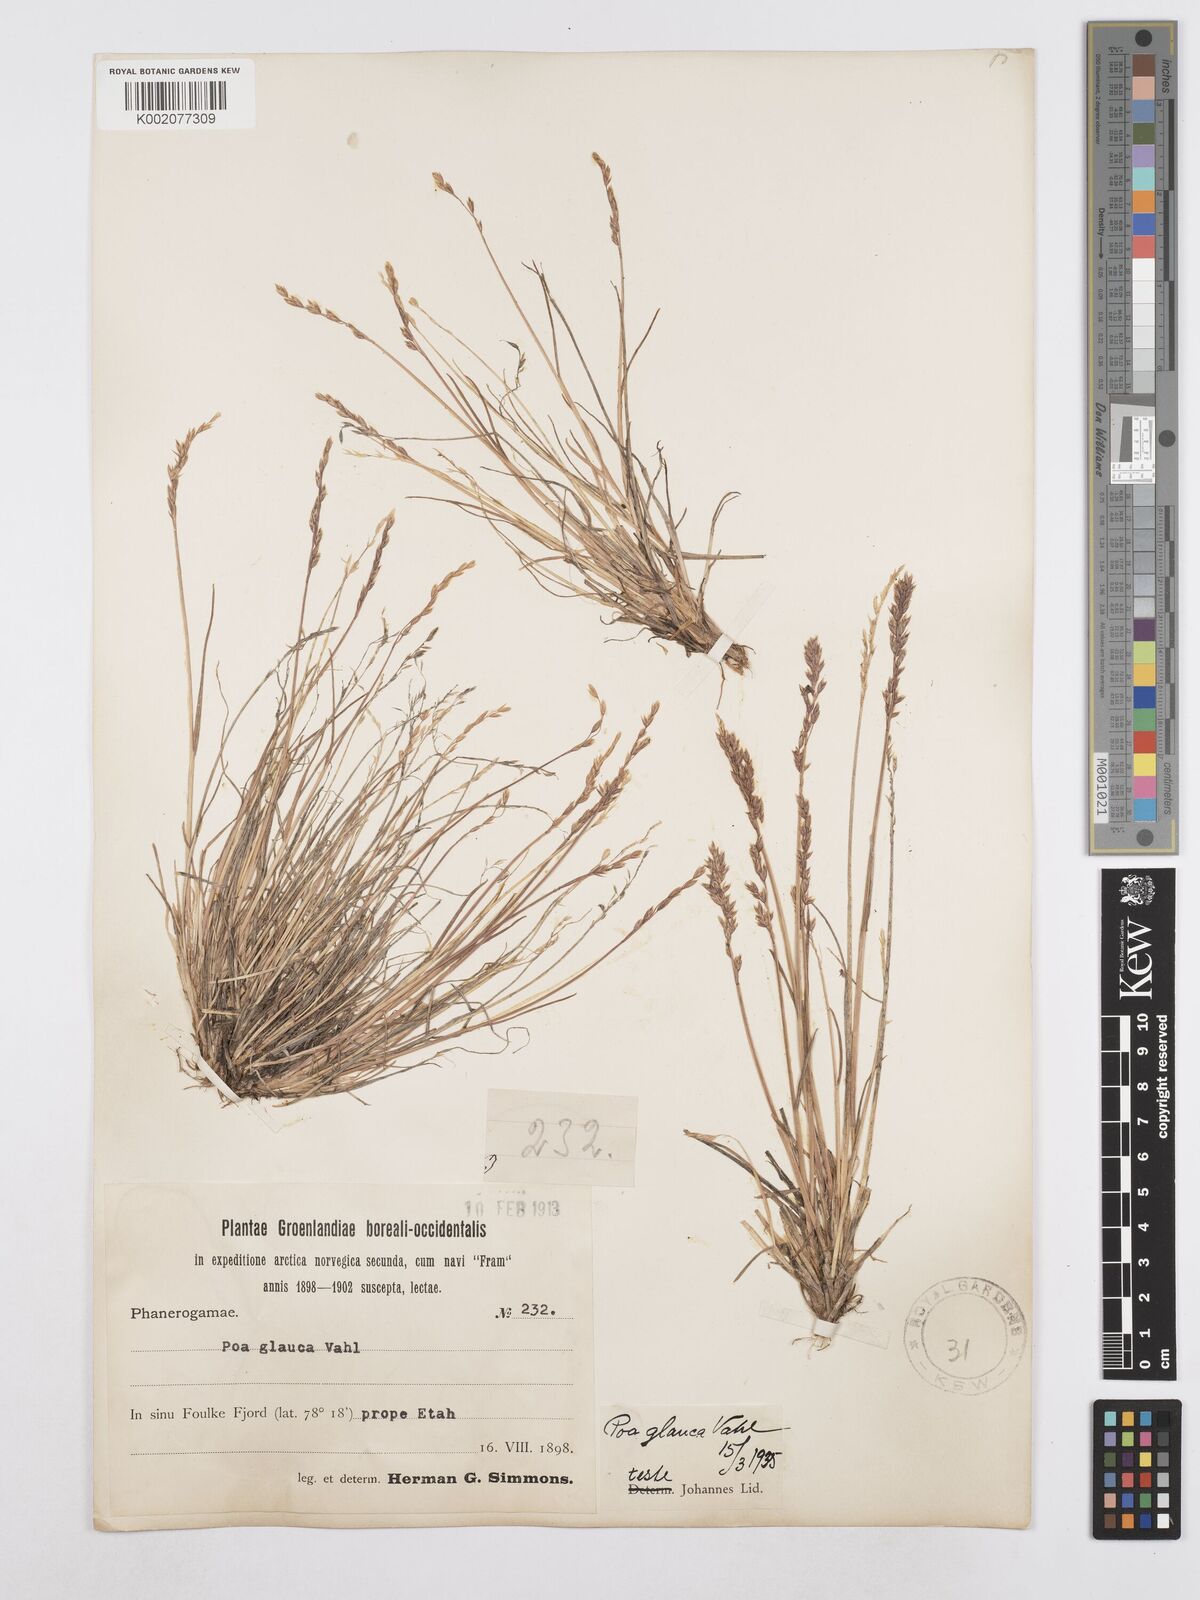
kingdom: Plantae
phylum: Tracheophyta
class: Liliopsida
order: Poales
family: Poaceae
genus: Poa
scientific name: Poa glauca
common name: Glaucous bluegrass
